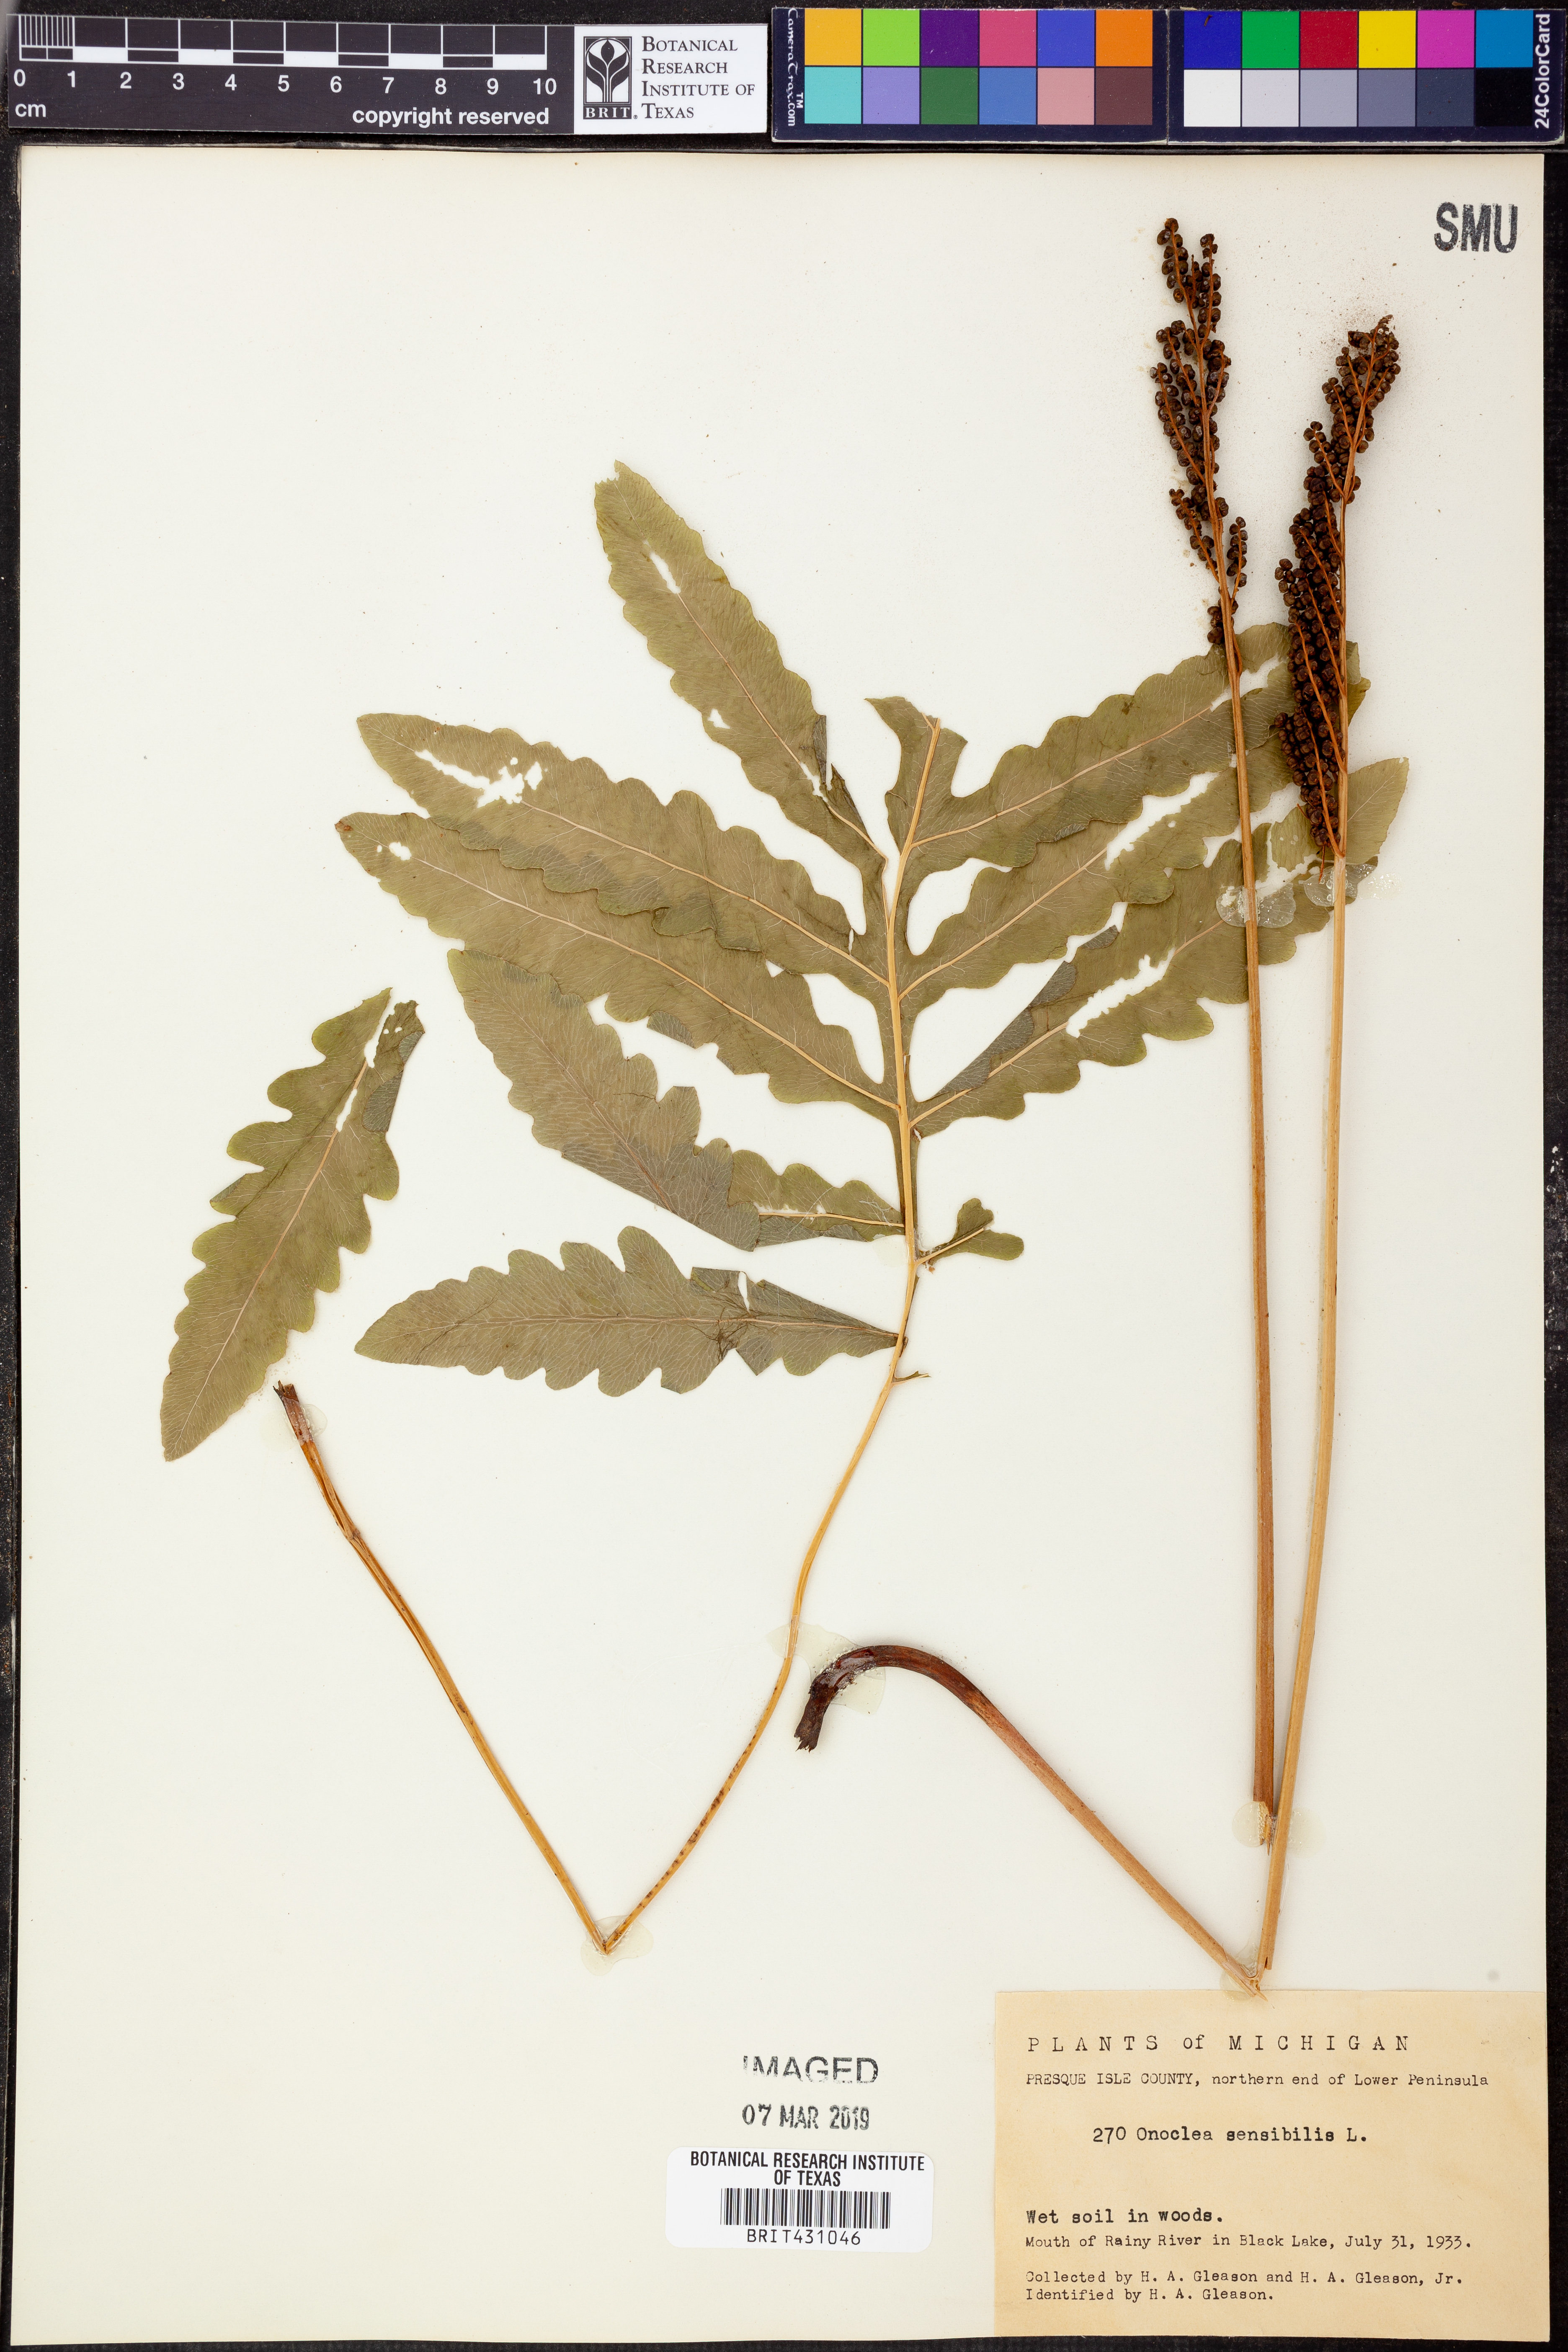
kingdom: Plantae
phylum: Tracheophyta
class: Polypodiopsida
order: Polypodiales
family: Onocleaceae
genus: Onoclea
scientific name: Onoclea sensibilis
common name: Sensitive fern
